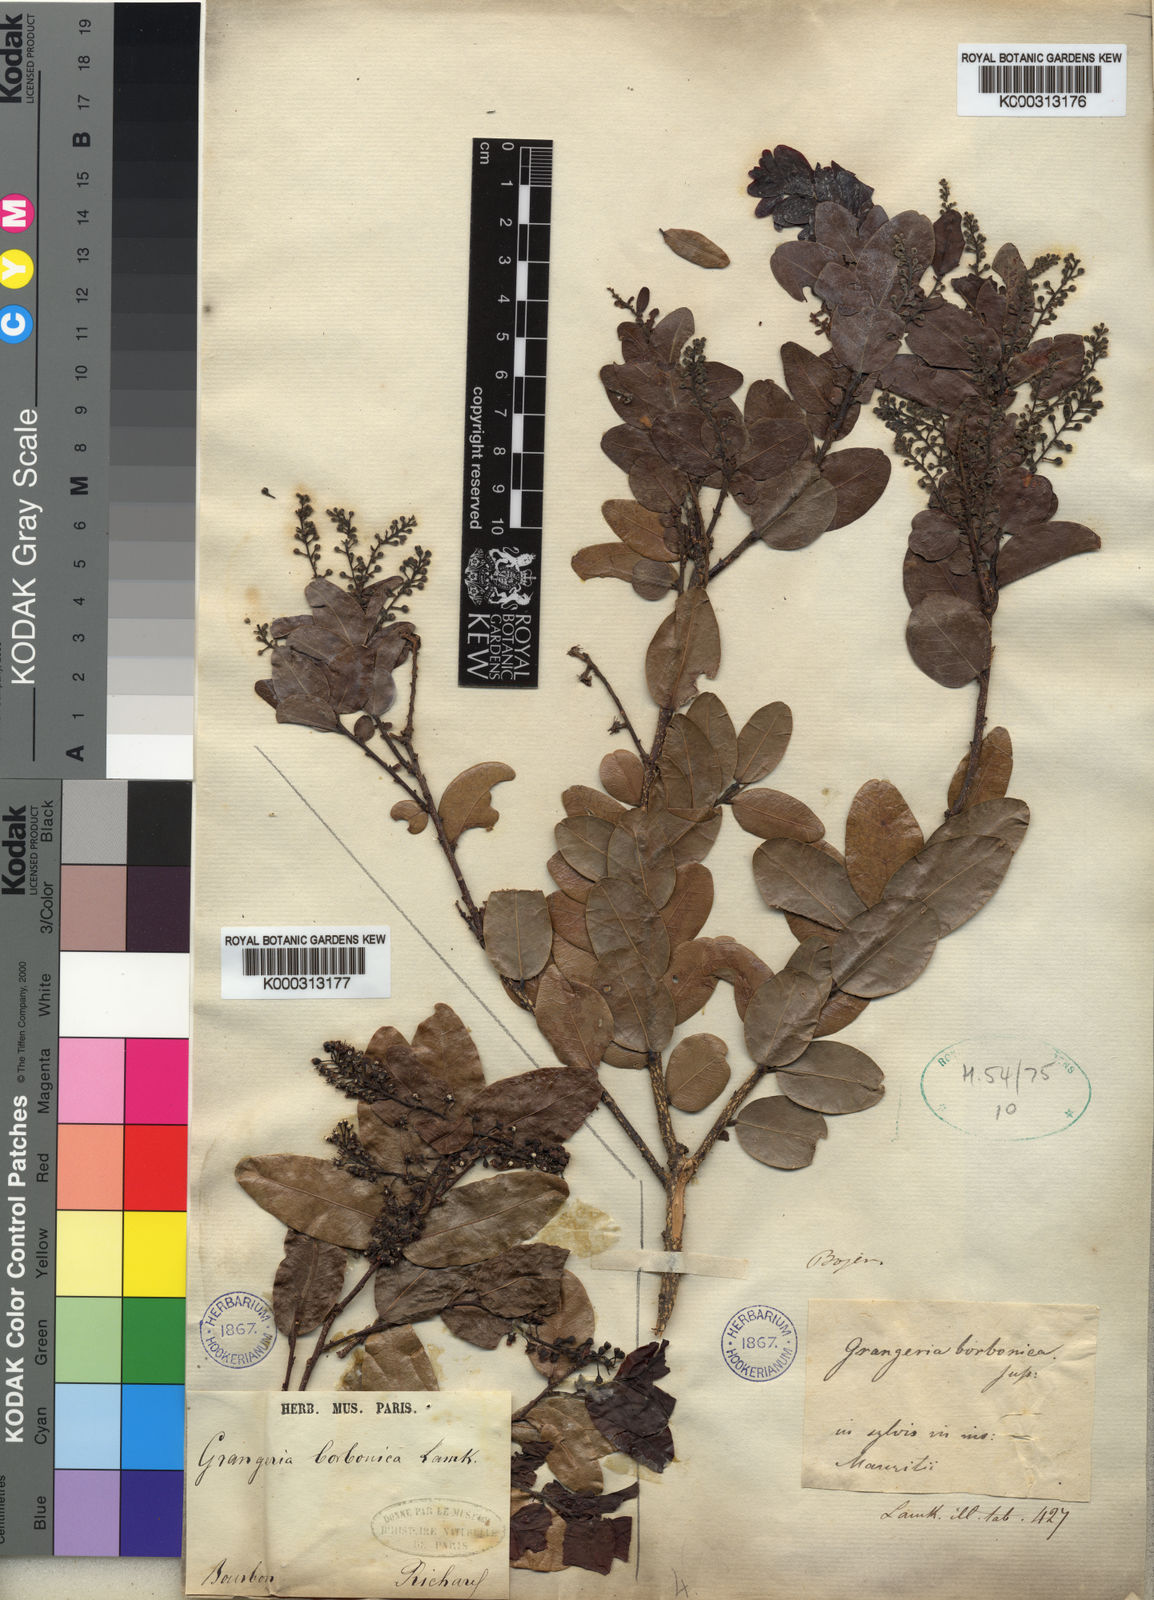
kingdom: Plantae
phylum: Tracheophyta
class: Magnoliopsida
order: Malpighiales
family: Chrysobalanaceae
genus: Grangeria
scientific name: Grangeria borbonica
